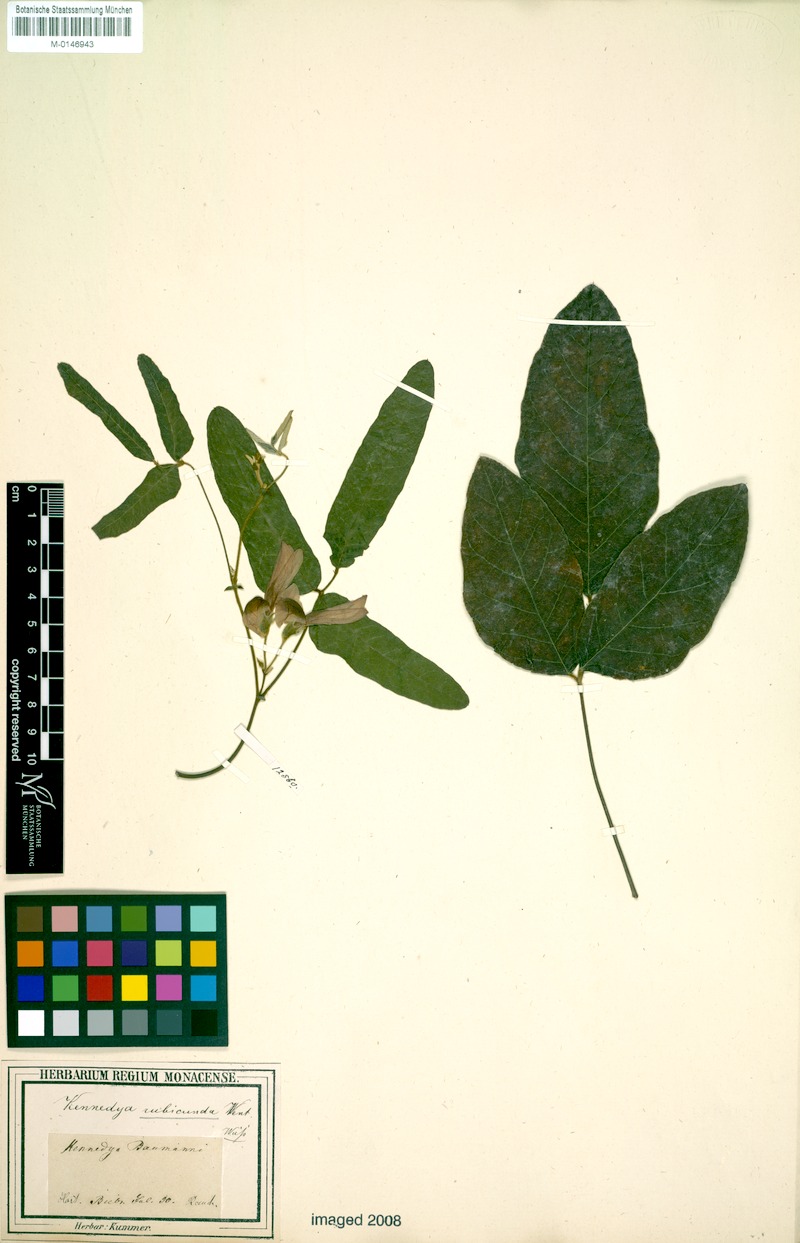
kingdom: Plantae
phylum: Tracheophyta
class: Magnoliopsida
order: Fabales
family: Fabaceae
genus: Kennedia
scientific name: Kennedia rubicunda
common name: Red kennedy-pea
